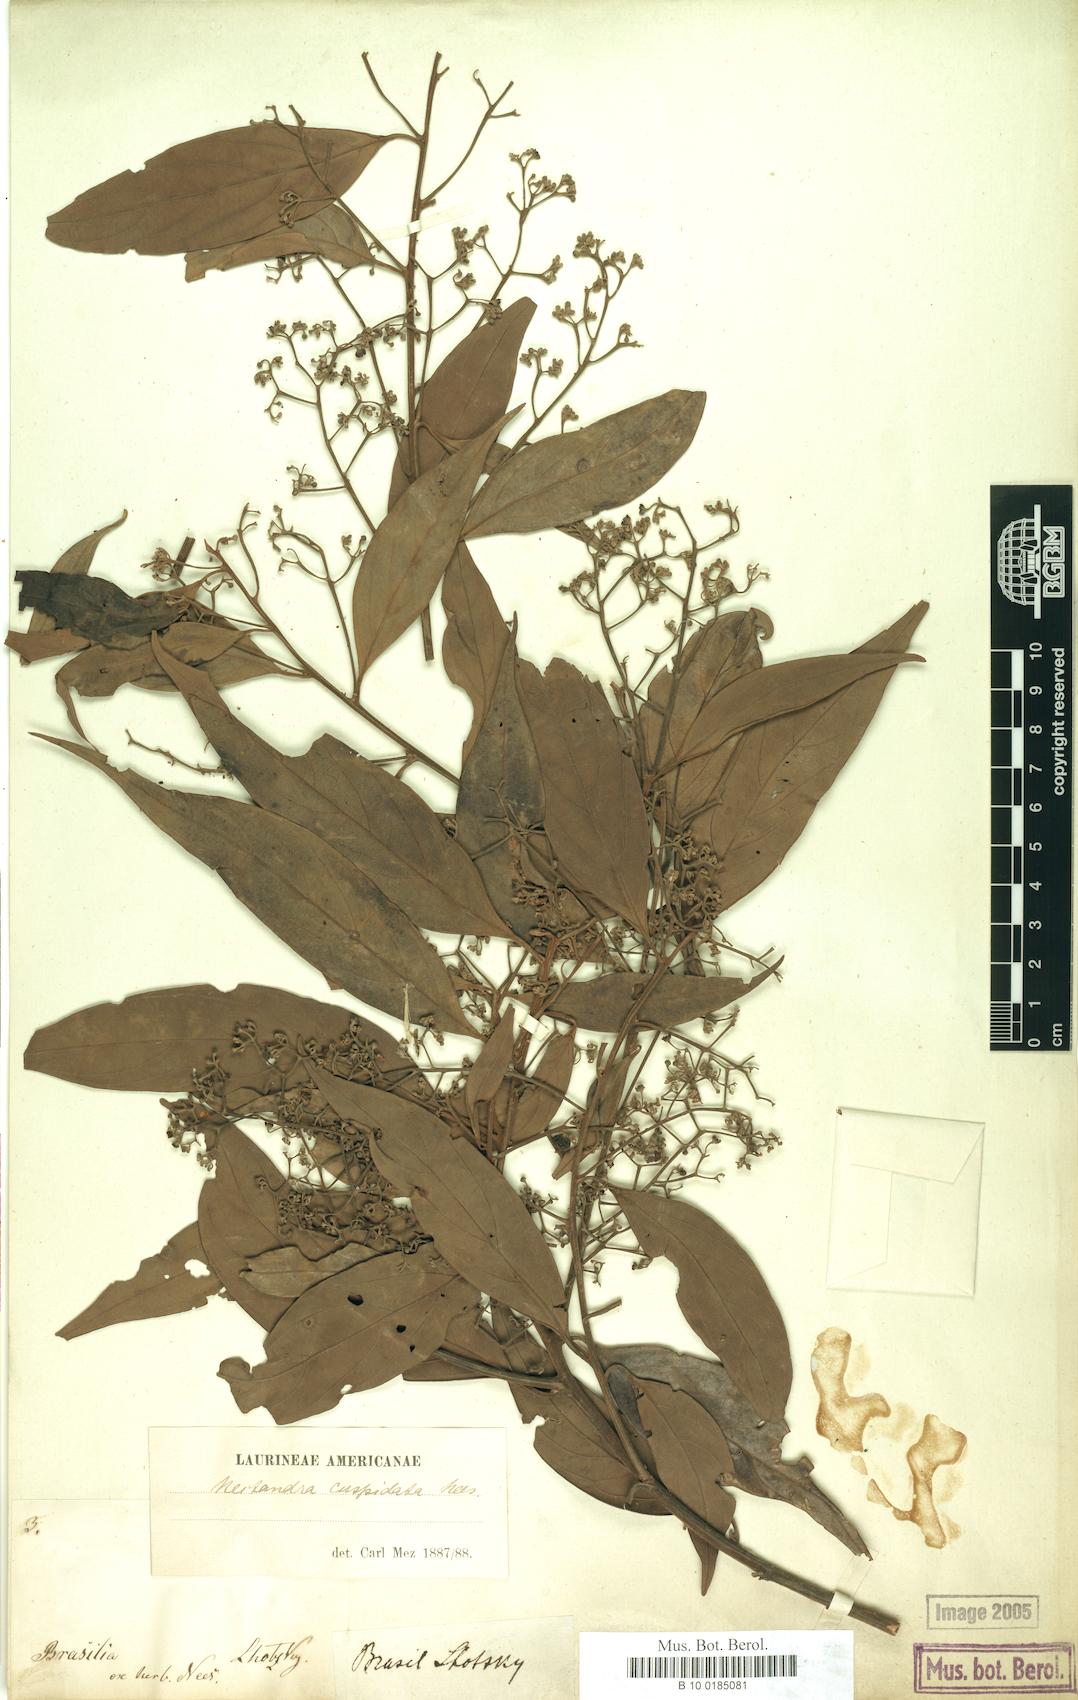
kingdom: Plantae
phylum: Tracheophyta
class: Magnoliopsida
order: Laurales
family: Lauraceae
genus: Nectandra
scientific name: Nectandra cuspidata
